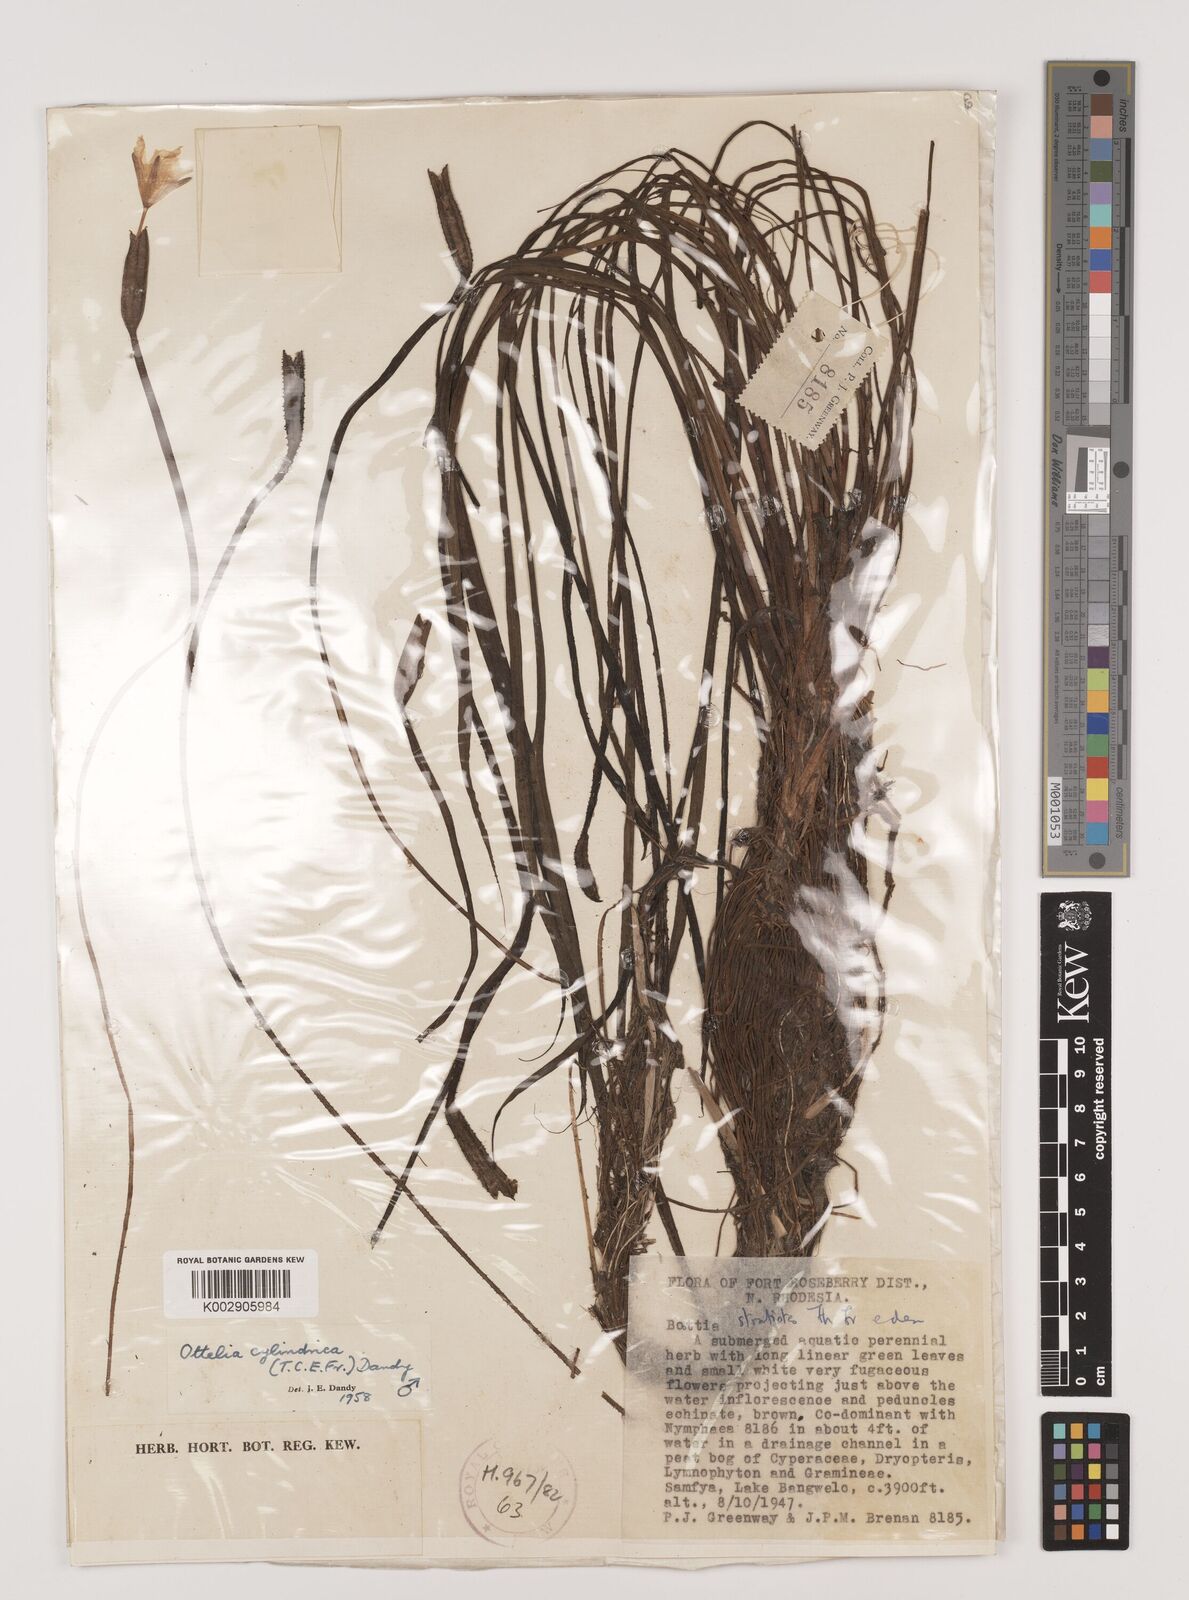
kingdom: Plantae
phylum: Tracheophyta
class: Liliopsida
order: Alismatales
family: Hydrocharitaceae
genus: Ottelia
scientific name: Ottelia cylindrica
